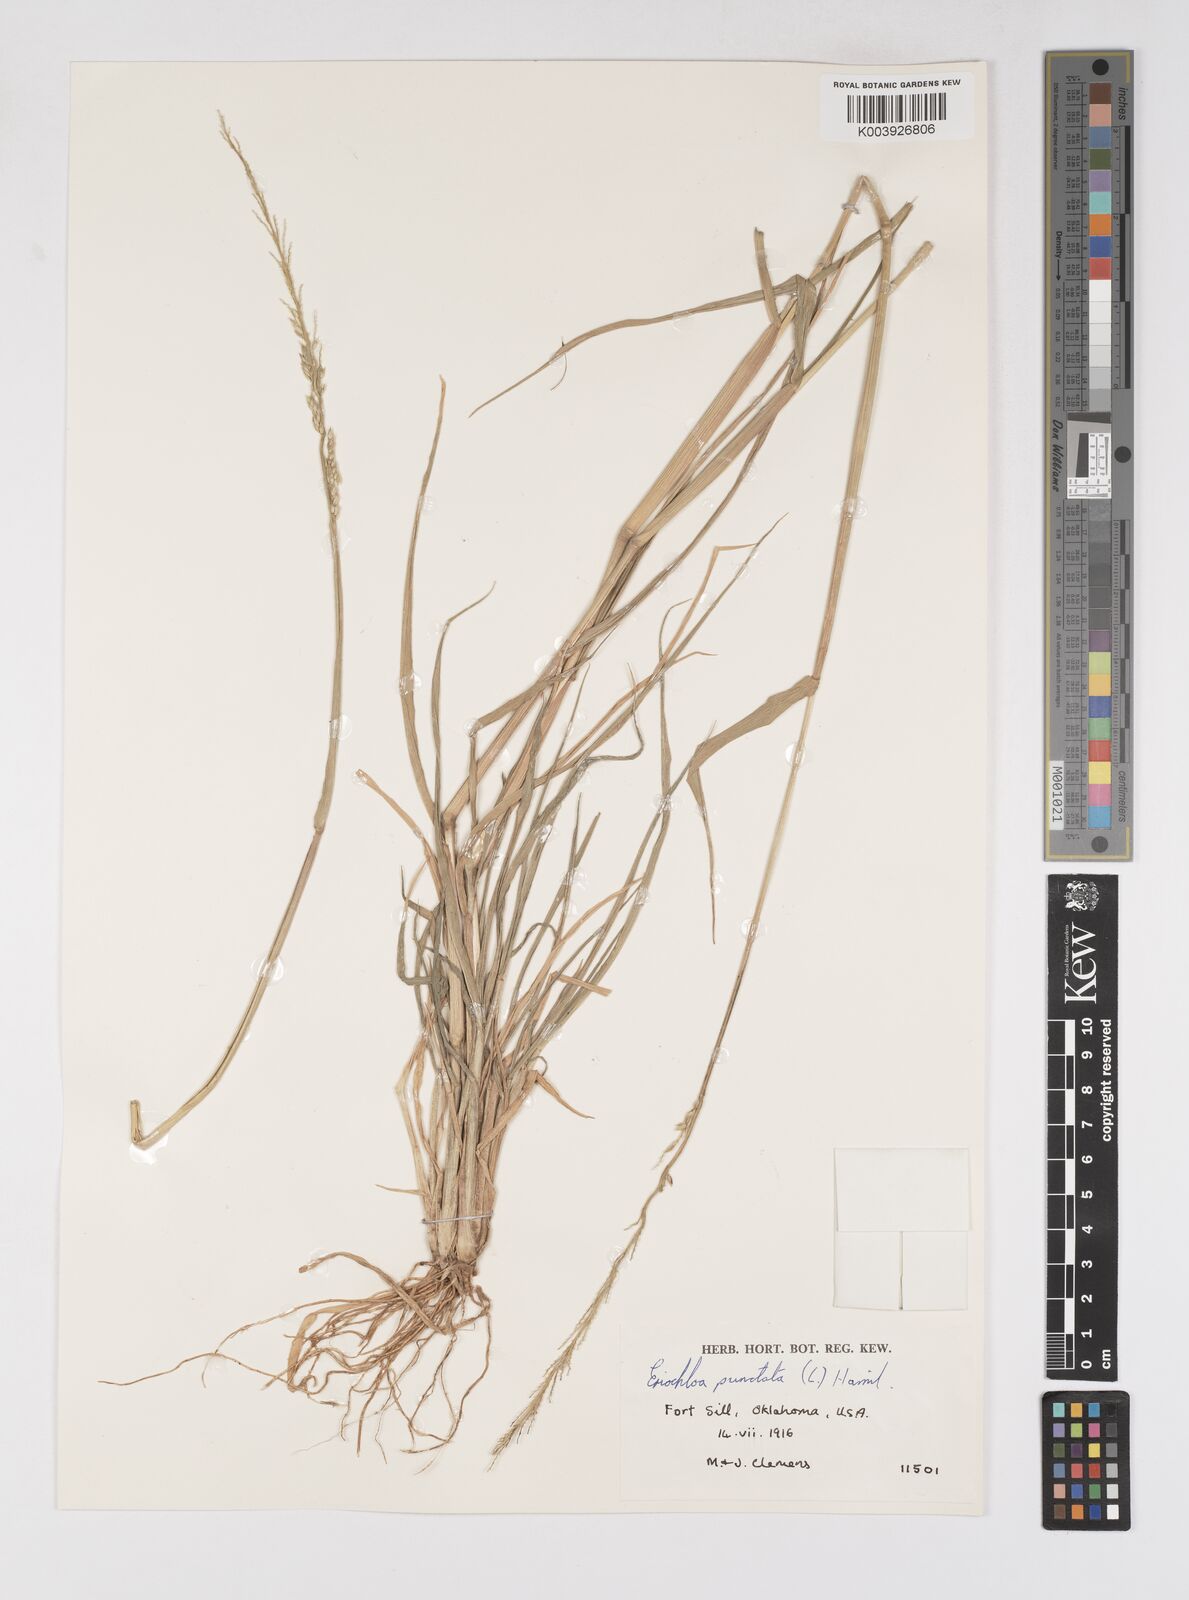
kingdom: Plantae
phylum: Tracheophyta
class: Liliopsida
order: Poales
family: Poaceae
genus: Eriochloa
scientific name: Eriochloa contracta
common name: Prairie cup grass
